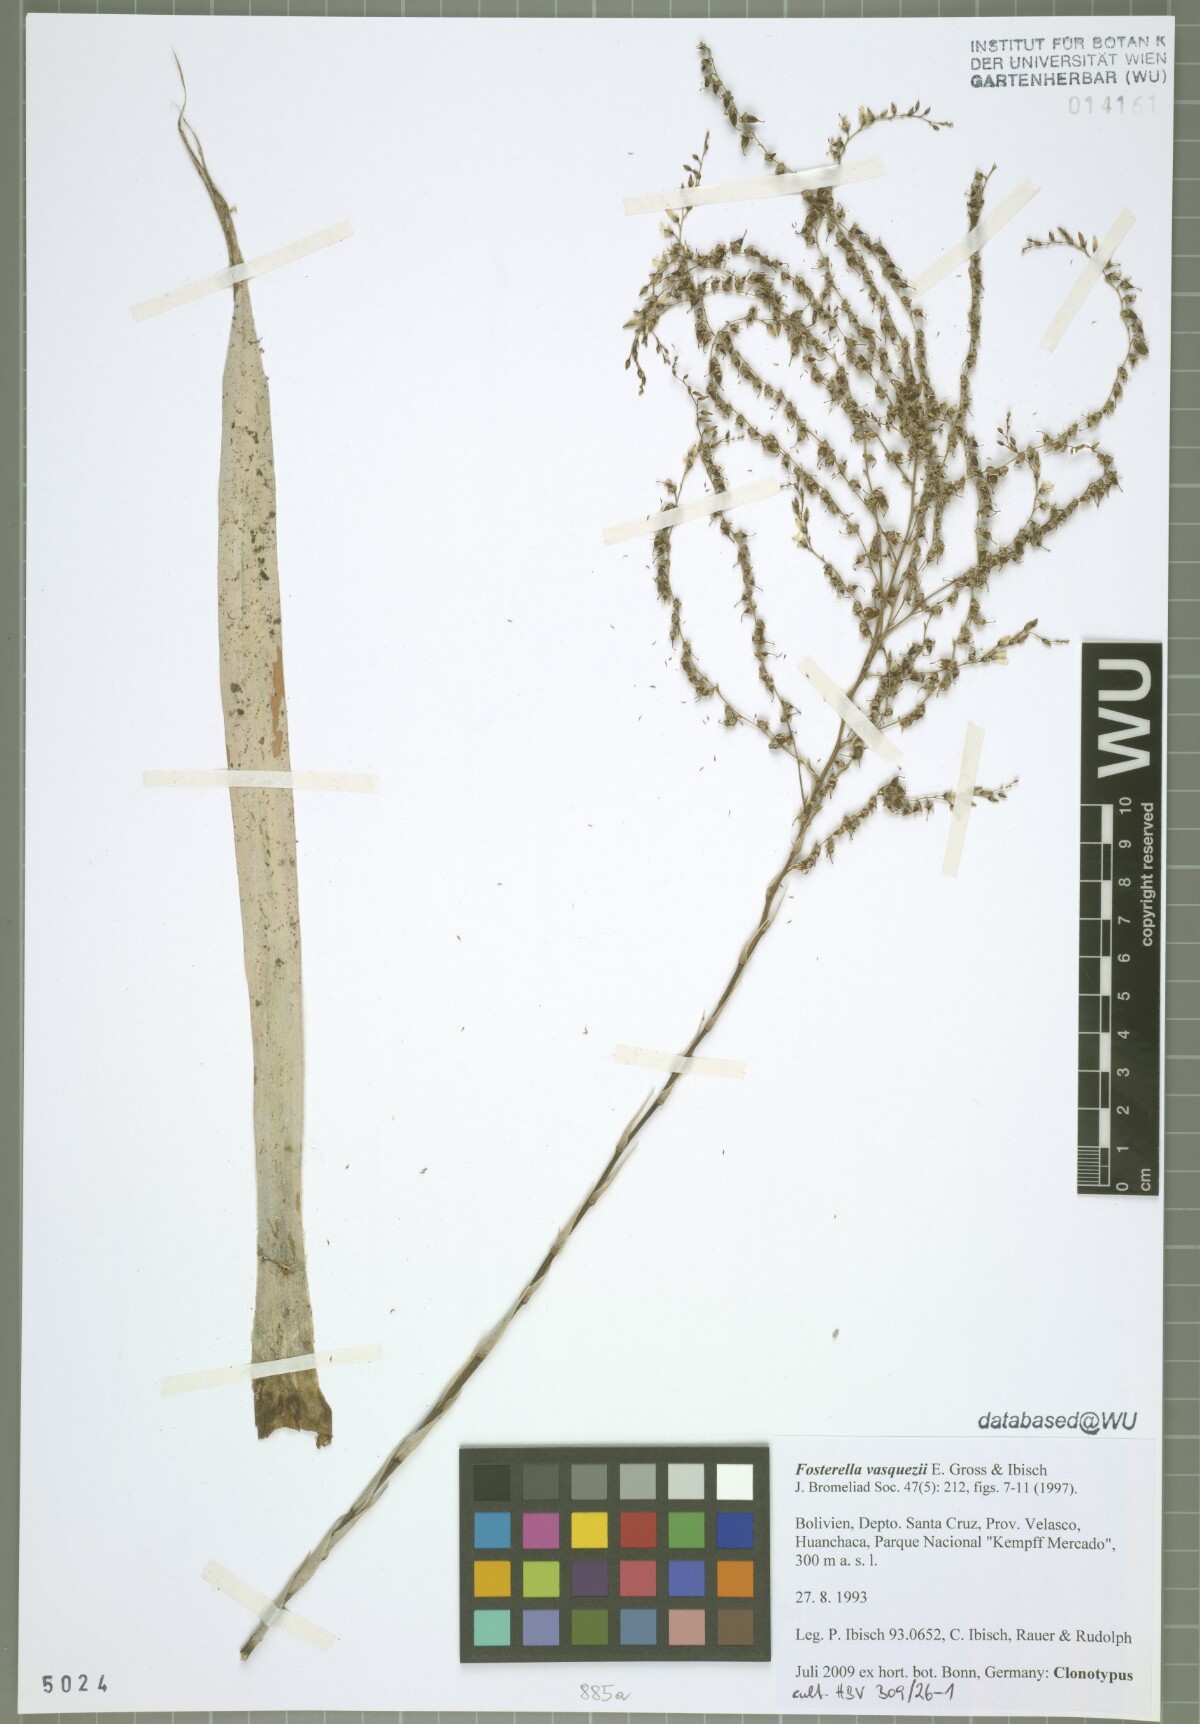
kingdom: Plantae
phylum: Tracheophyta
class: Liliopsida
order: Poales
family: Bromeliaceae
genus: Fosterella
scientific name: Fosterella vasquezii
